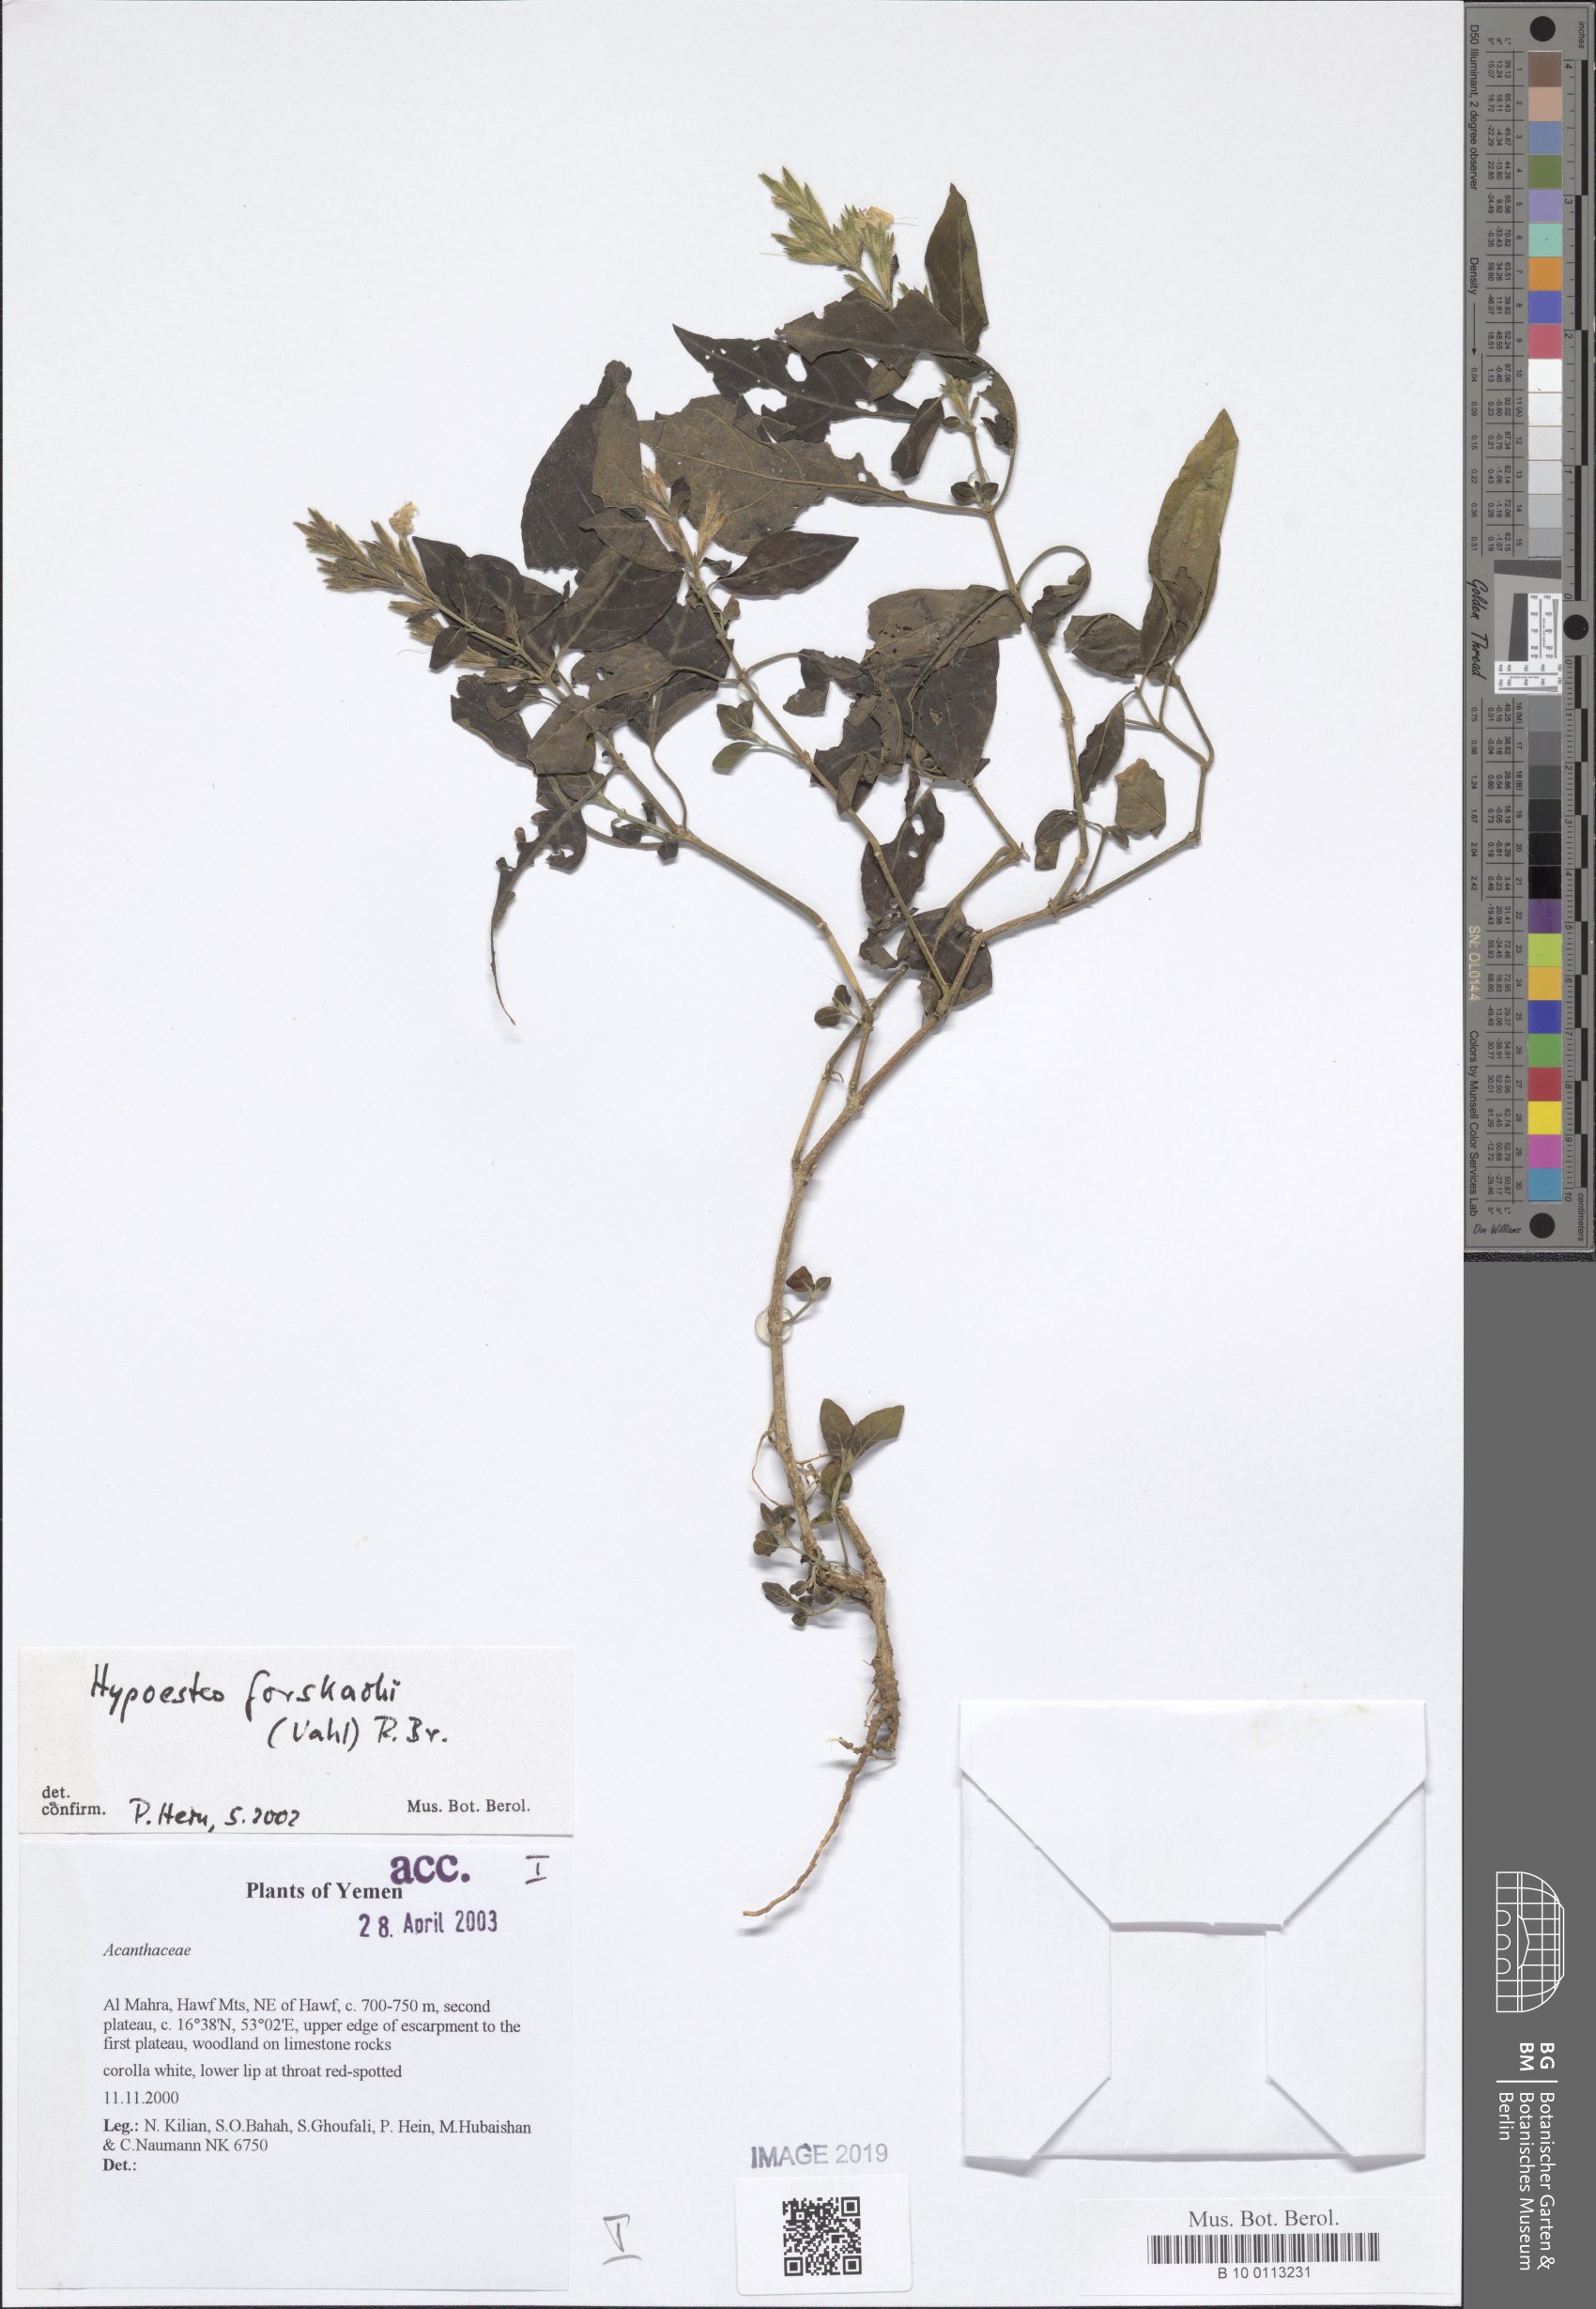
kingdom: Plantae
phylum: Tracheophyta
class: Magnoliopsida
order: Lamiales
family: Acanthaceae
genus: Hypoestes
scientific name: Hypoestes forskaolii
